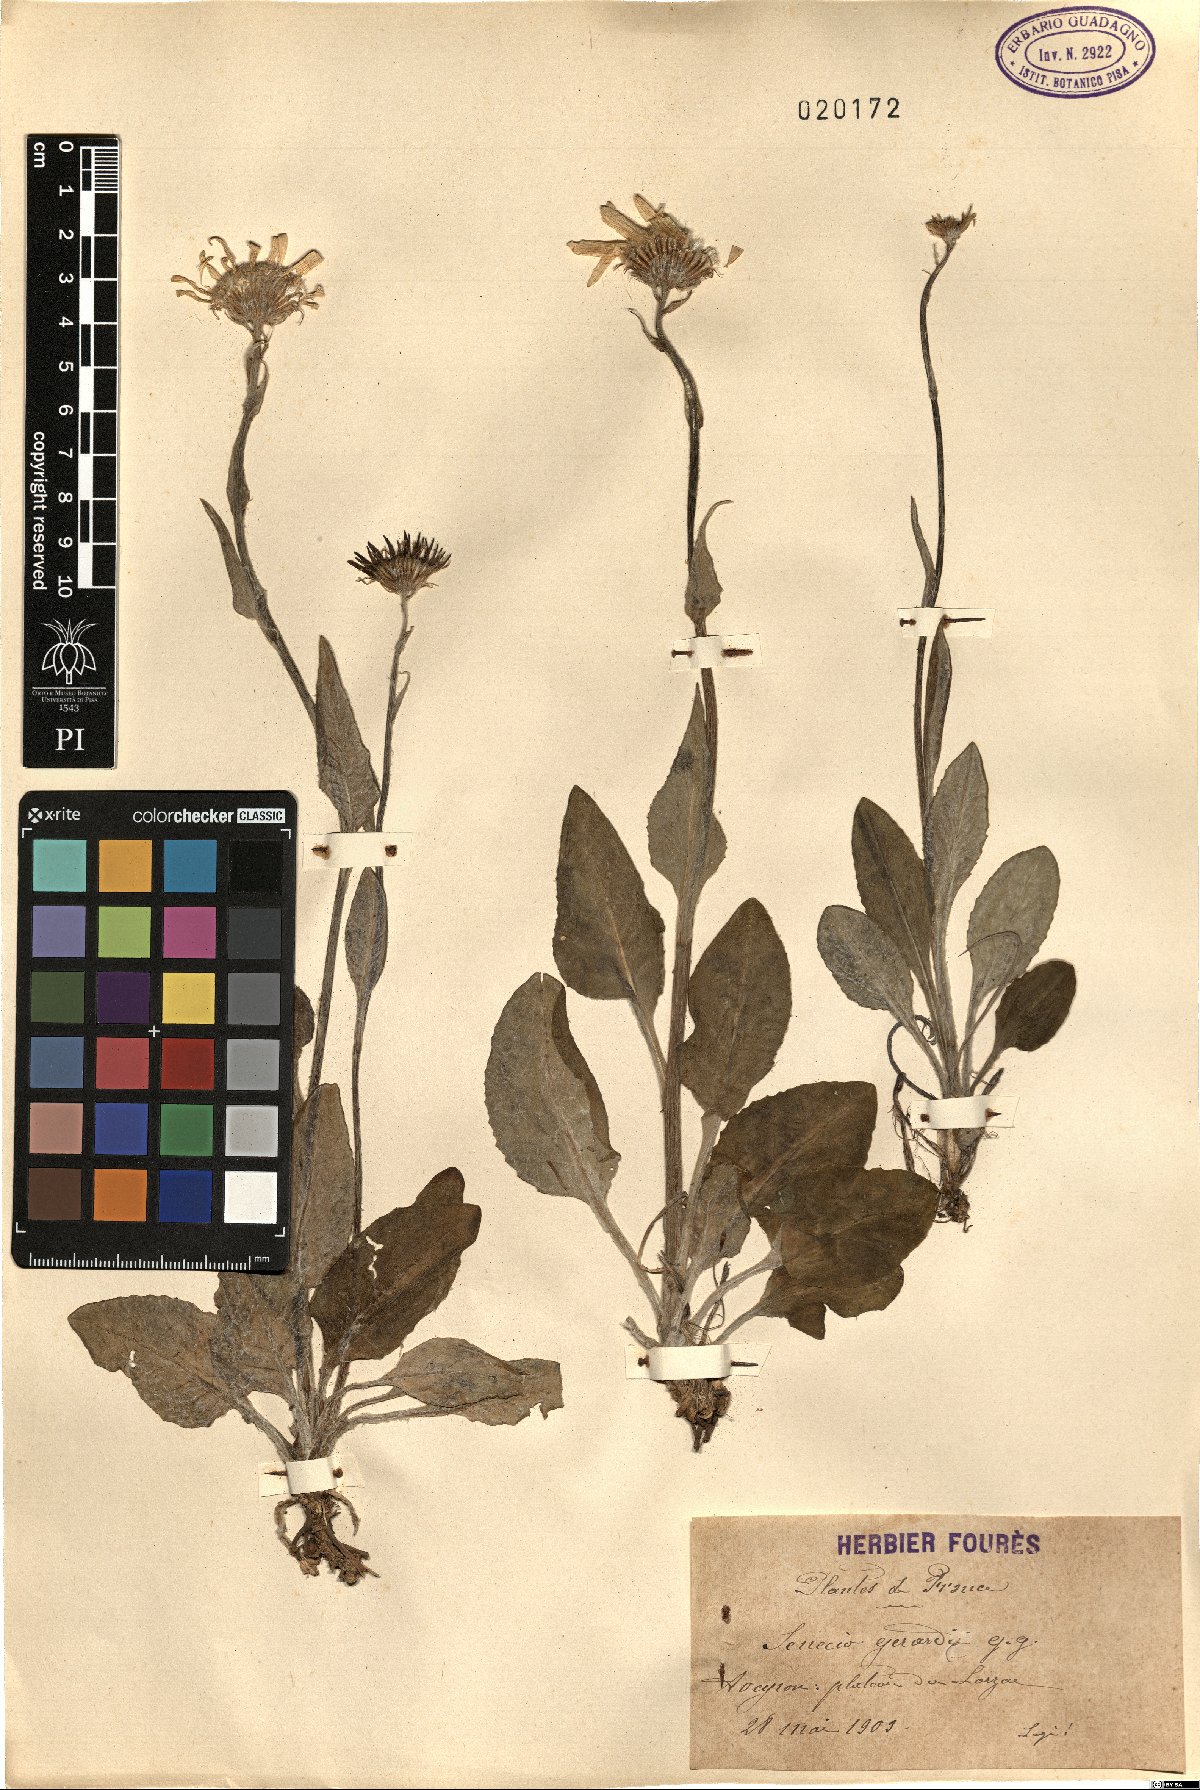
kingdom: Plantae
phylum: Tracheophyta
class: Magnoliopsida
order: Asterales
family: Asteraceae
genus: Senecio
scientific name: Senecio provincialis
